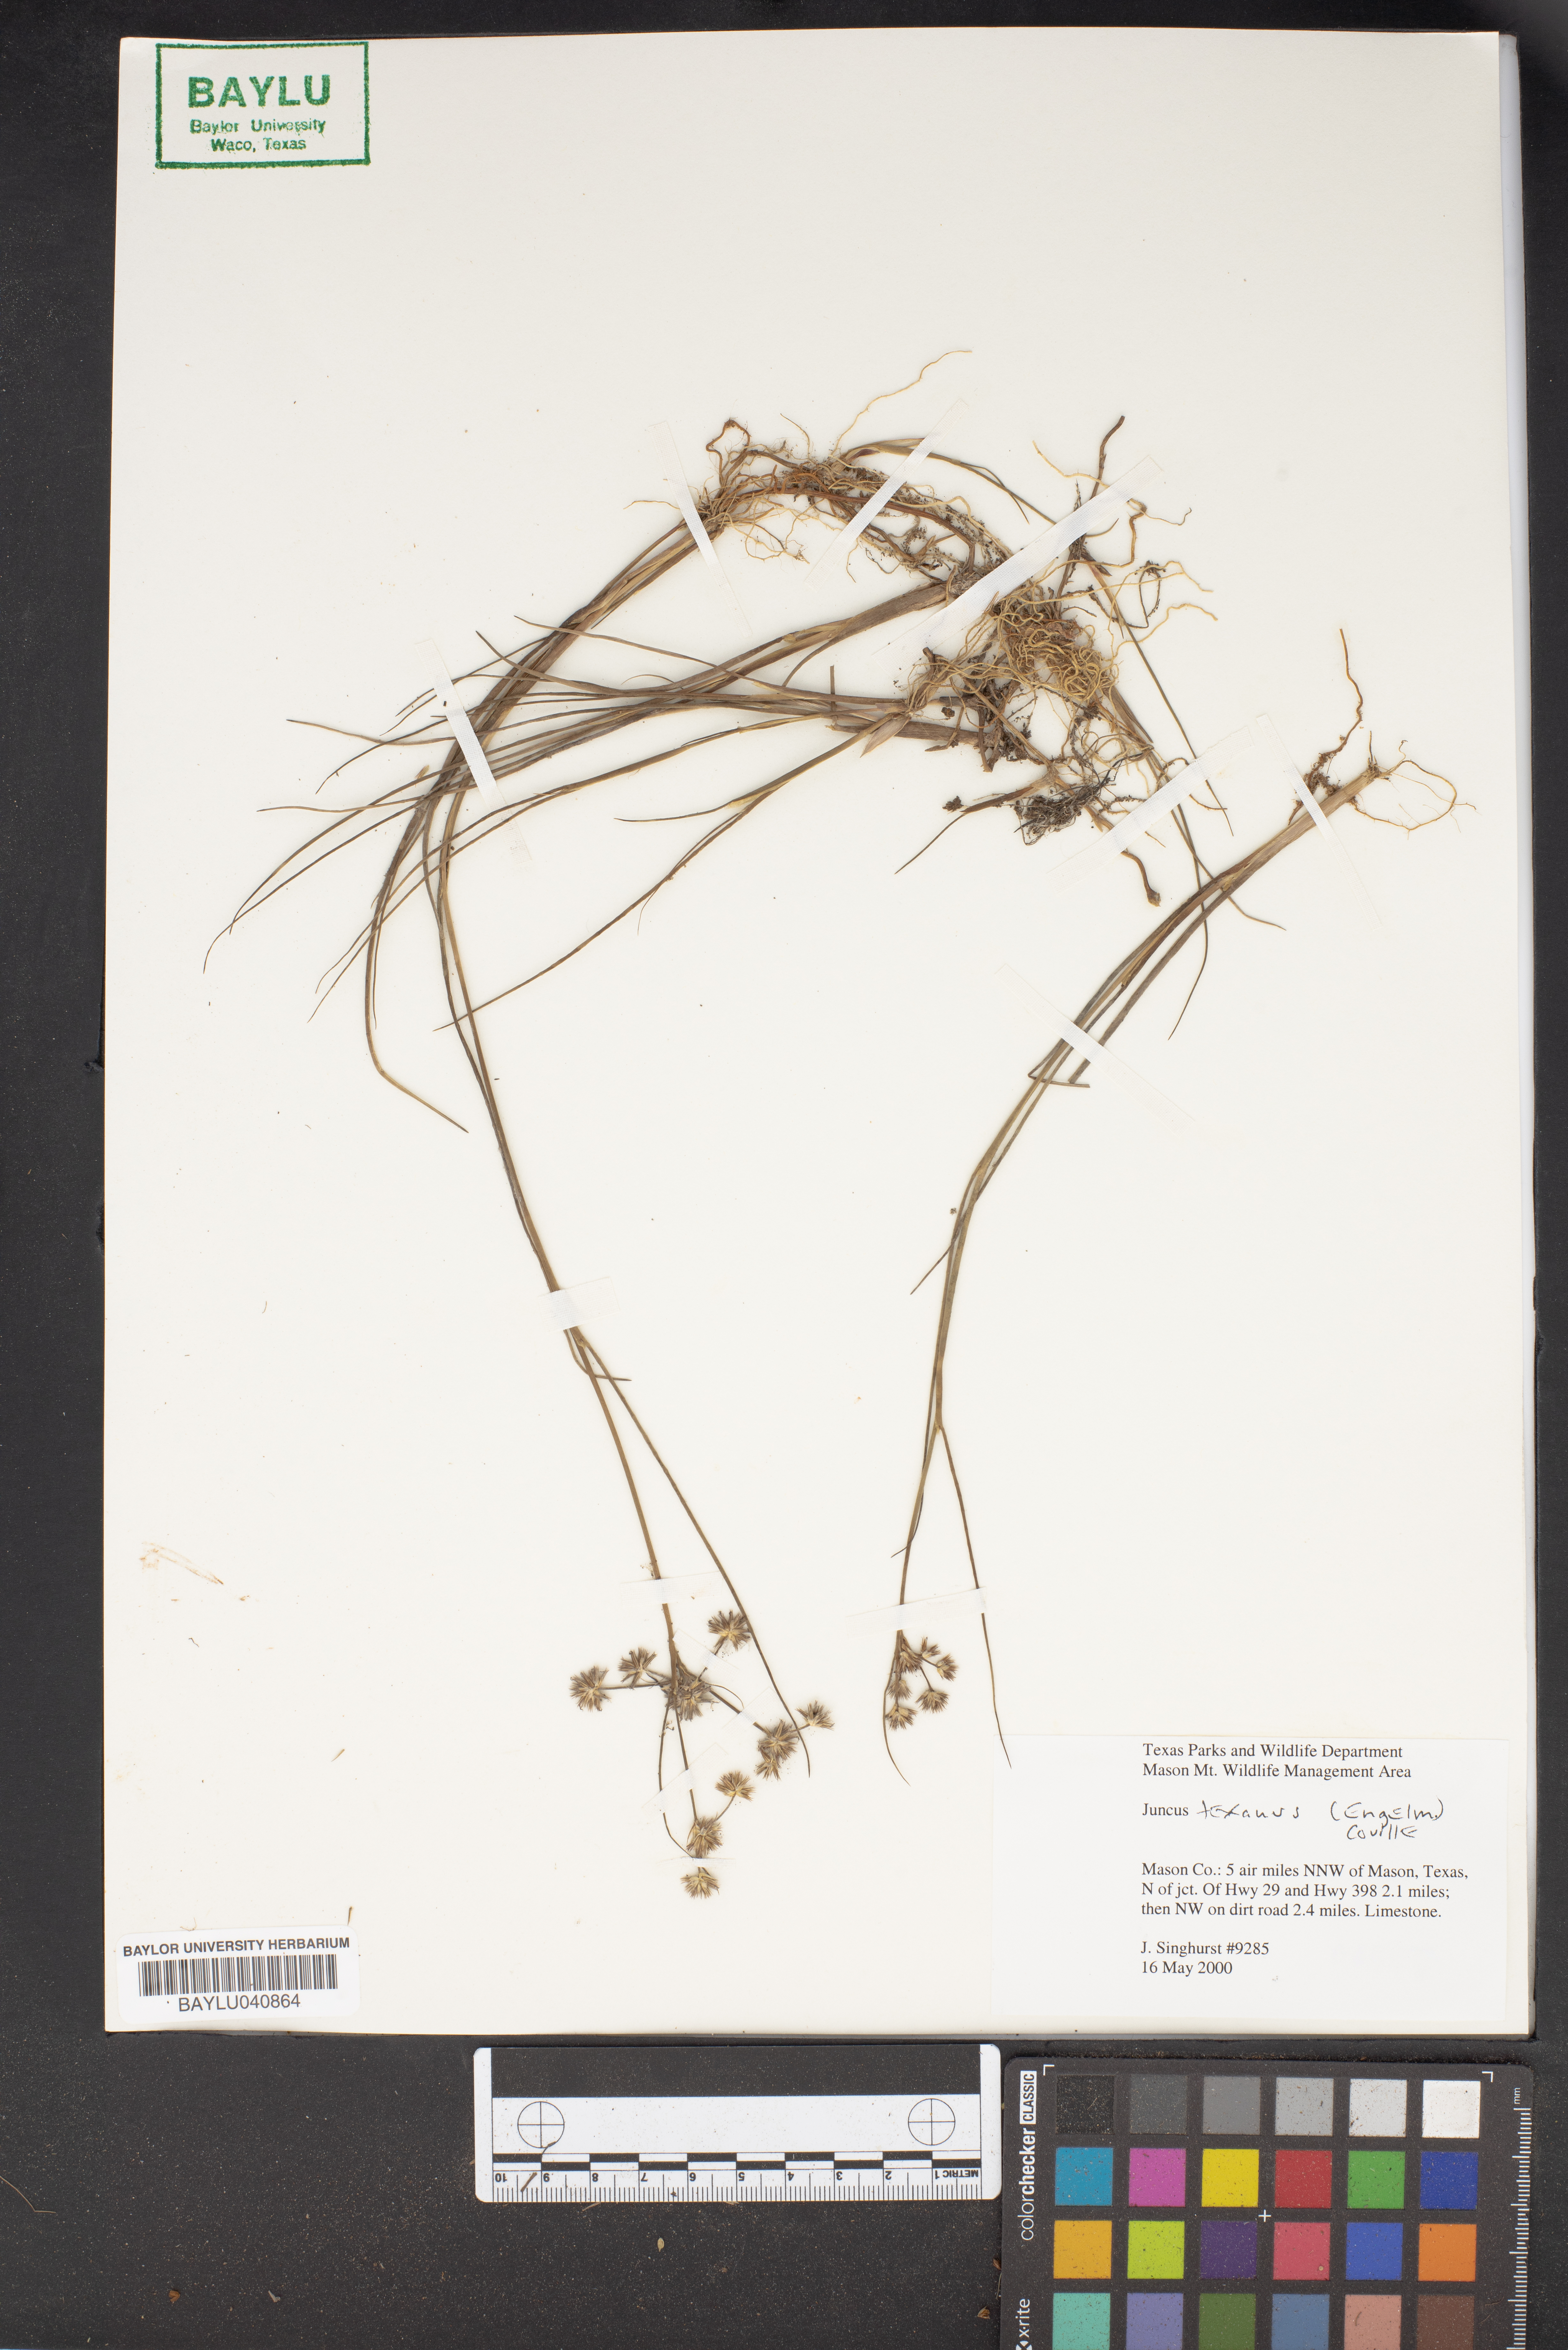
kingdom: Plantae
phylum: Tracheophyta
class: Liliopsida
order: Poales
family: Juncaceae
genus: Juncus
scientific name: Juncus texanus
